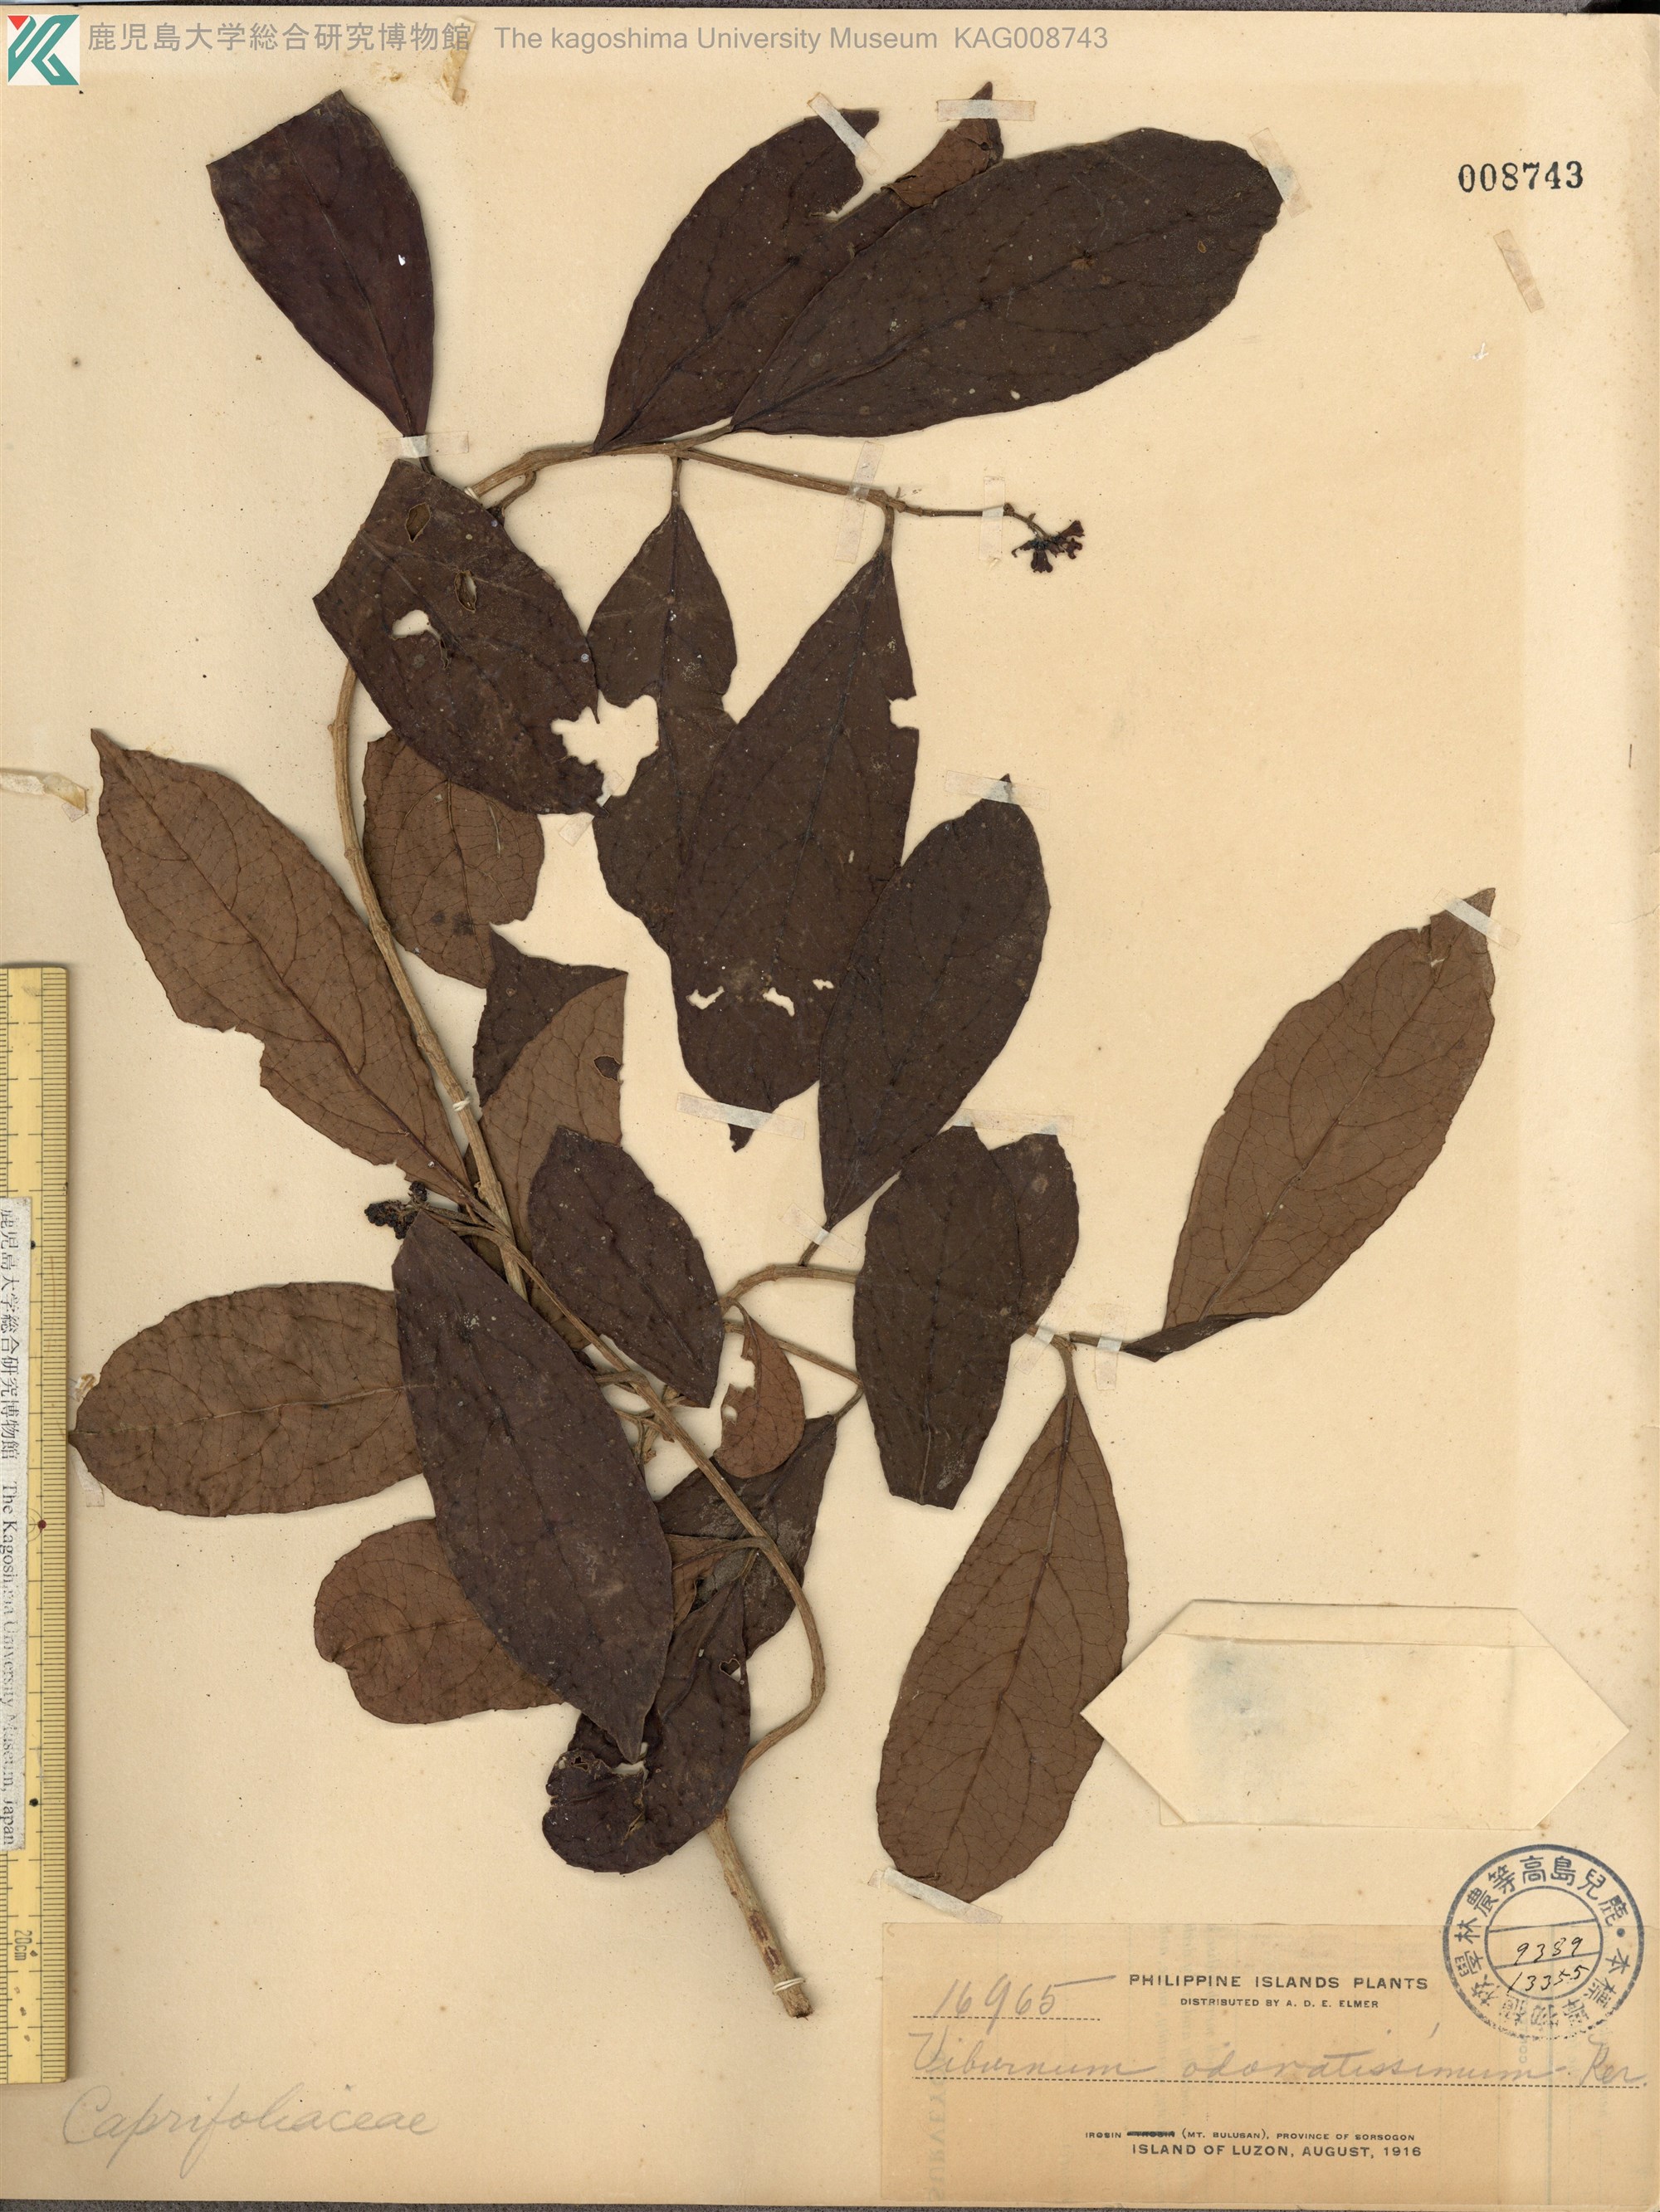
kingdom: Plantae
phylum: Tracheophyta
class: Magnoliopsida
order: Dipsacales
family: Viburnaceae
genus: Viburnum
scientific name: Viburnum odoratissimum
